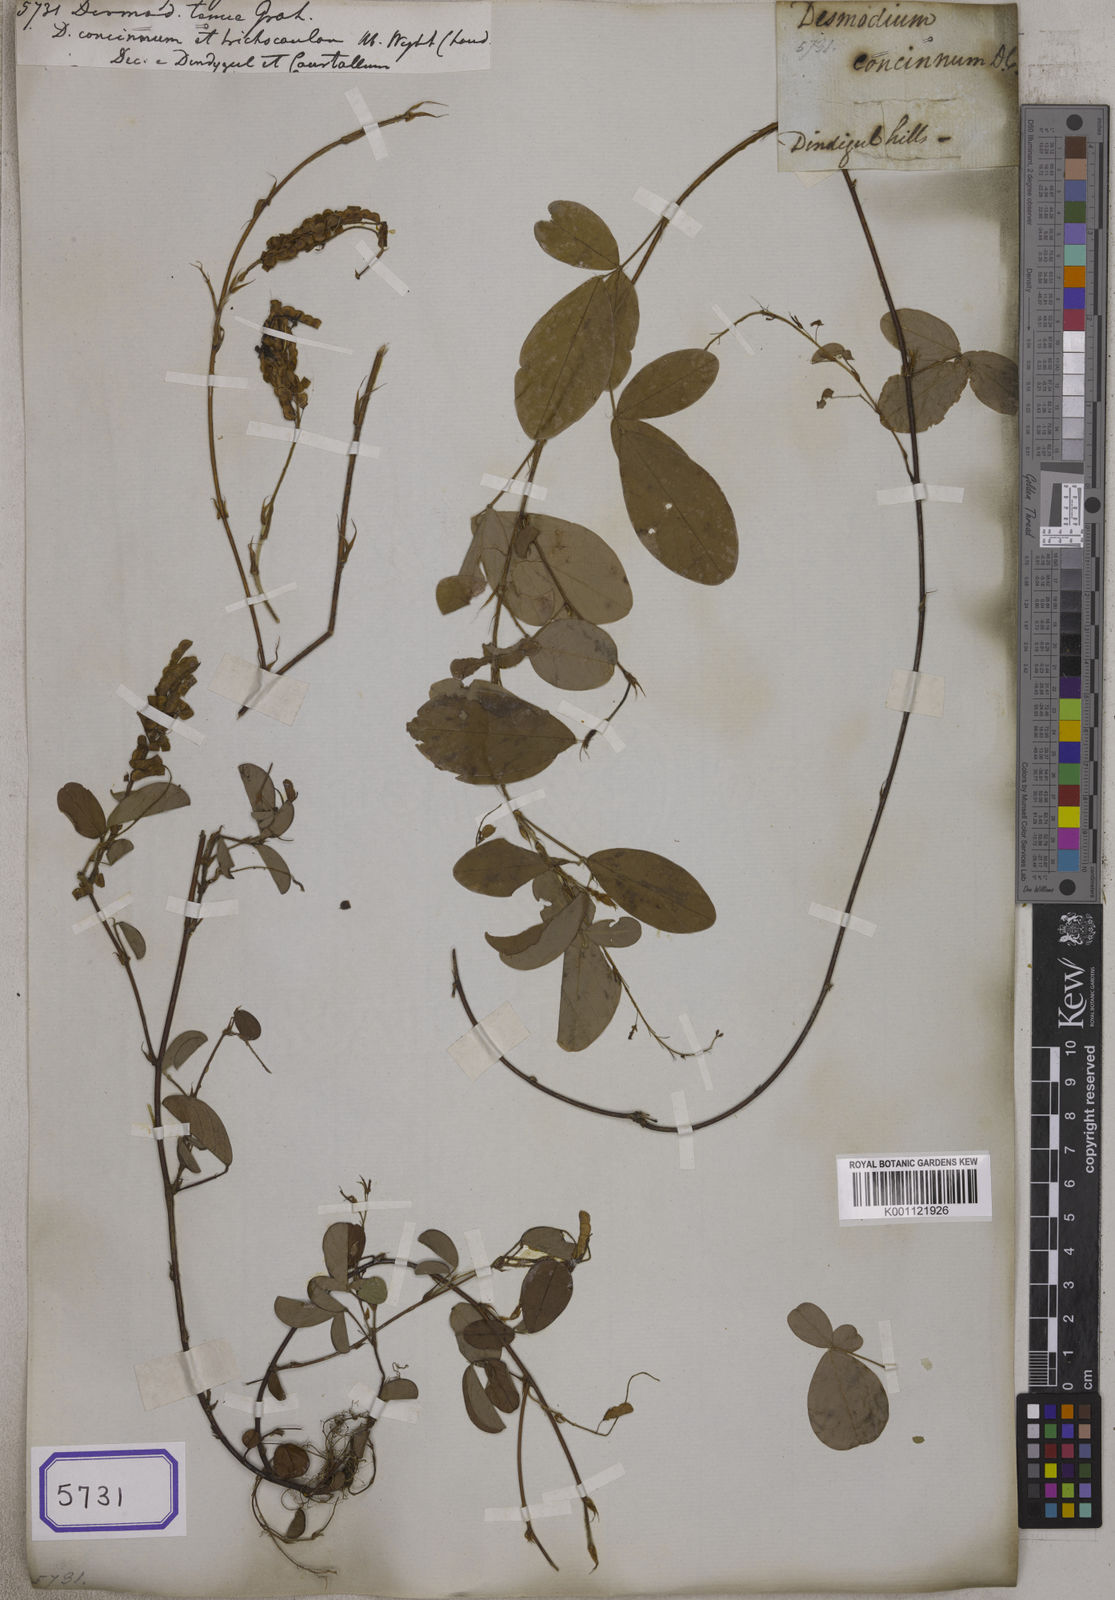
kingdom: Plantae
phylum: Tracheophyta
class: Magnoliopsida
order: Fabales
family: Fabaceae
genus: Desmodium
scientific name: Desmodium
